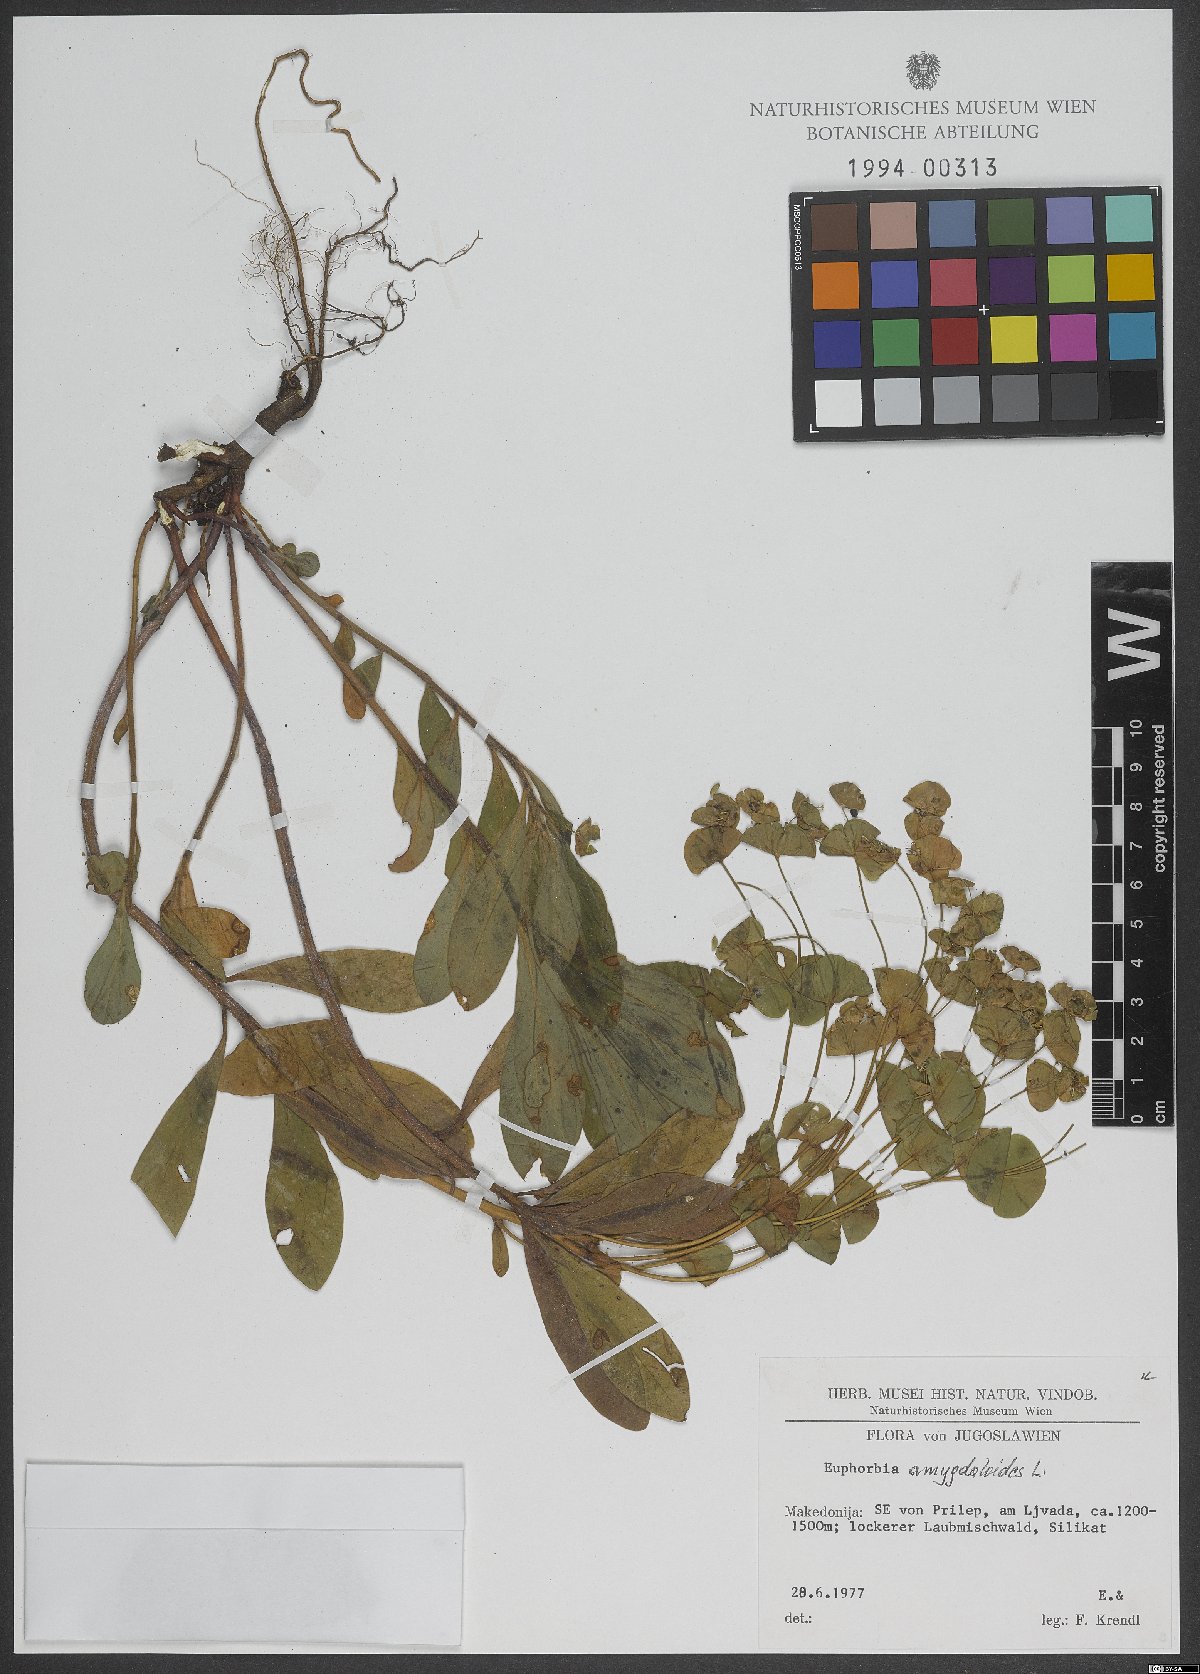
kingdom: Plantae
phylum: Tracheophyta
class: Magnoliopsida
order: Malpighiales
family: Euphorbiaceae
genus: Euphorbia
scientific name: Euphorbia amygdaloides
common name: Wood spurge
